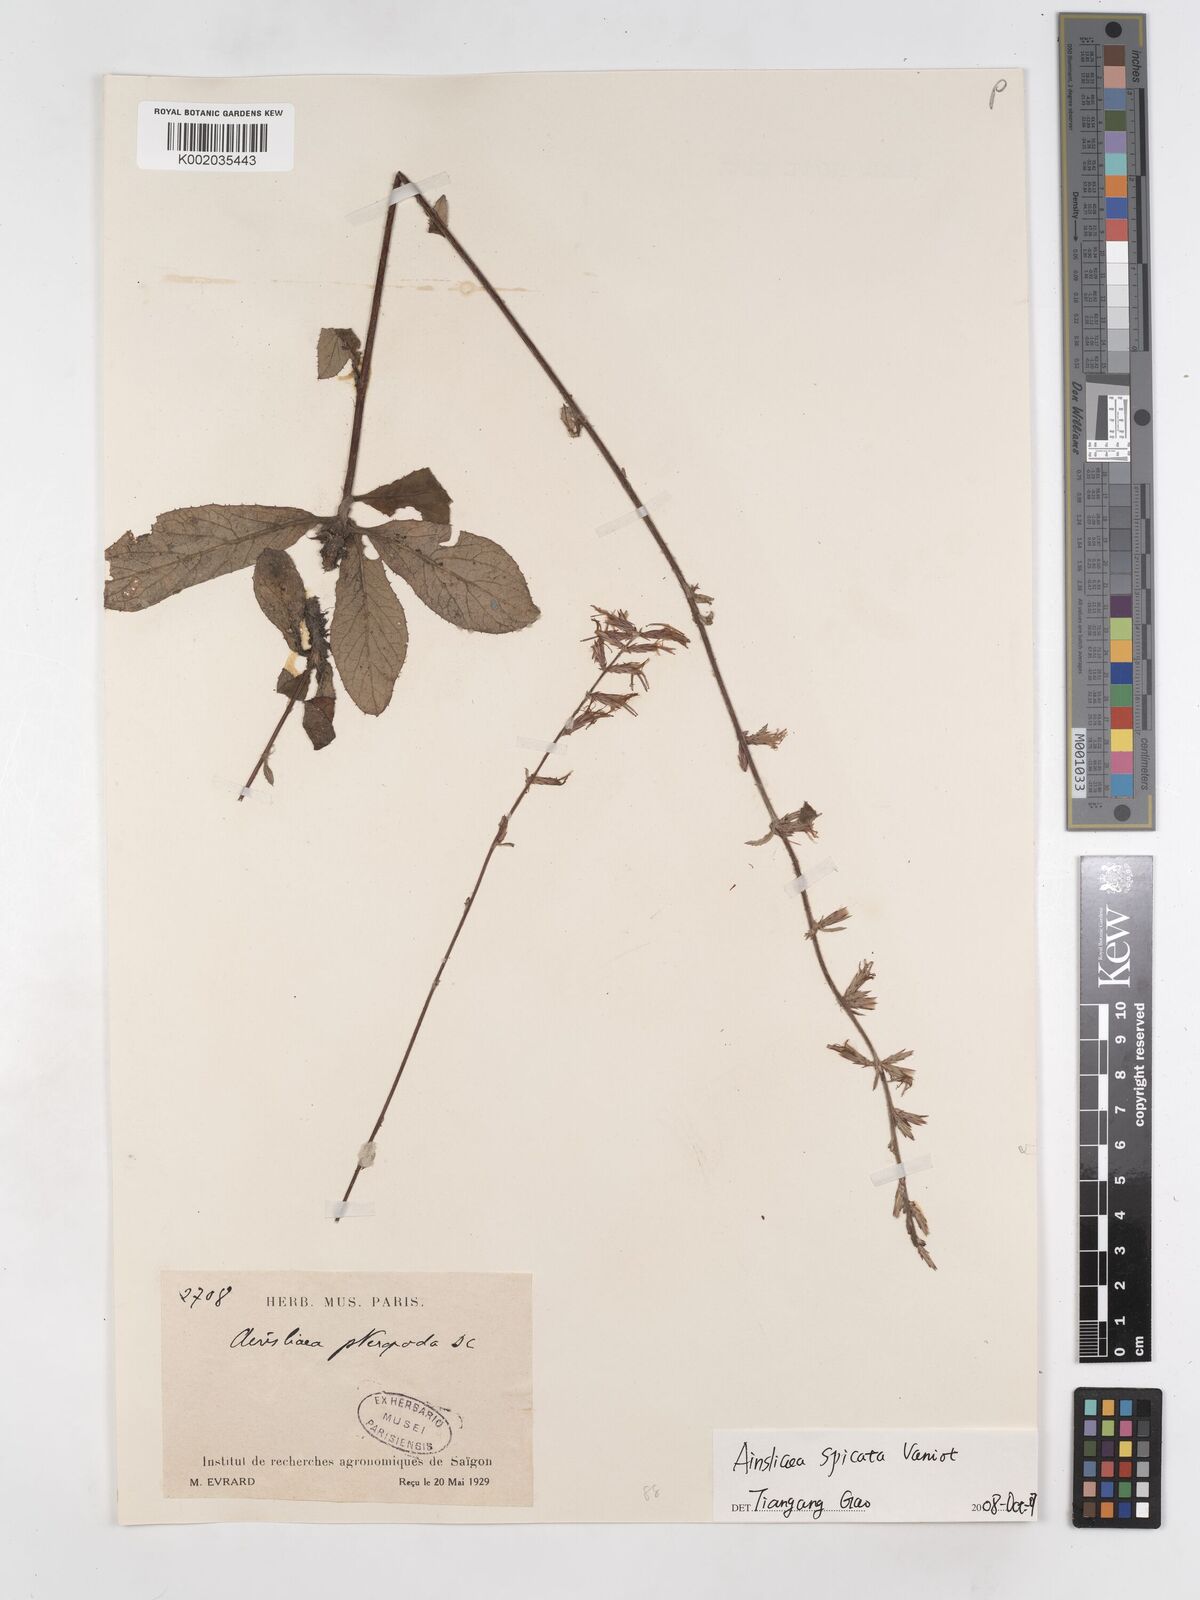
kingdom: Plantae
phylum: Tracheophyta
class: Magnoliopsida
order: Asterales
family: Asteraceae
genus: Ainsliaea
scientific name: Ainsliaea spicata
